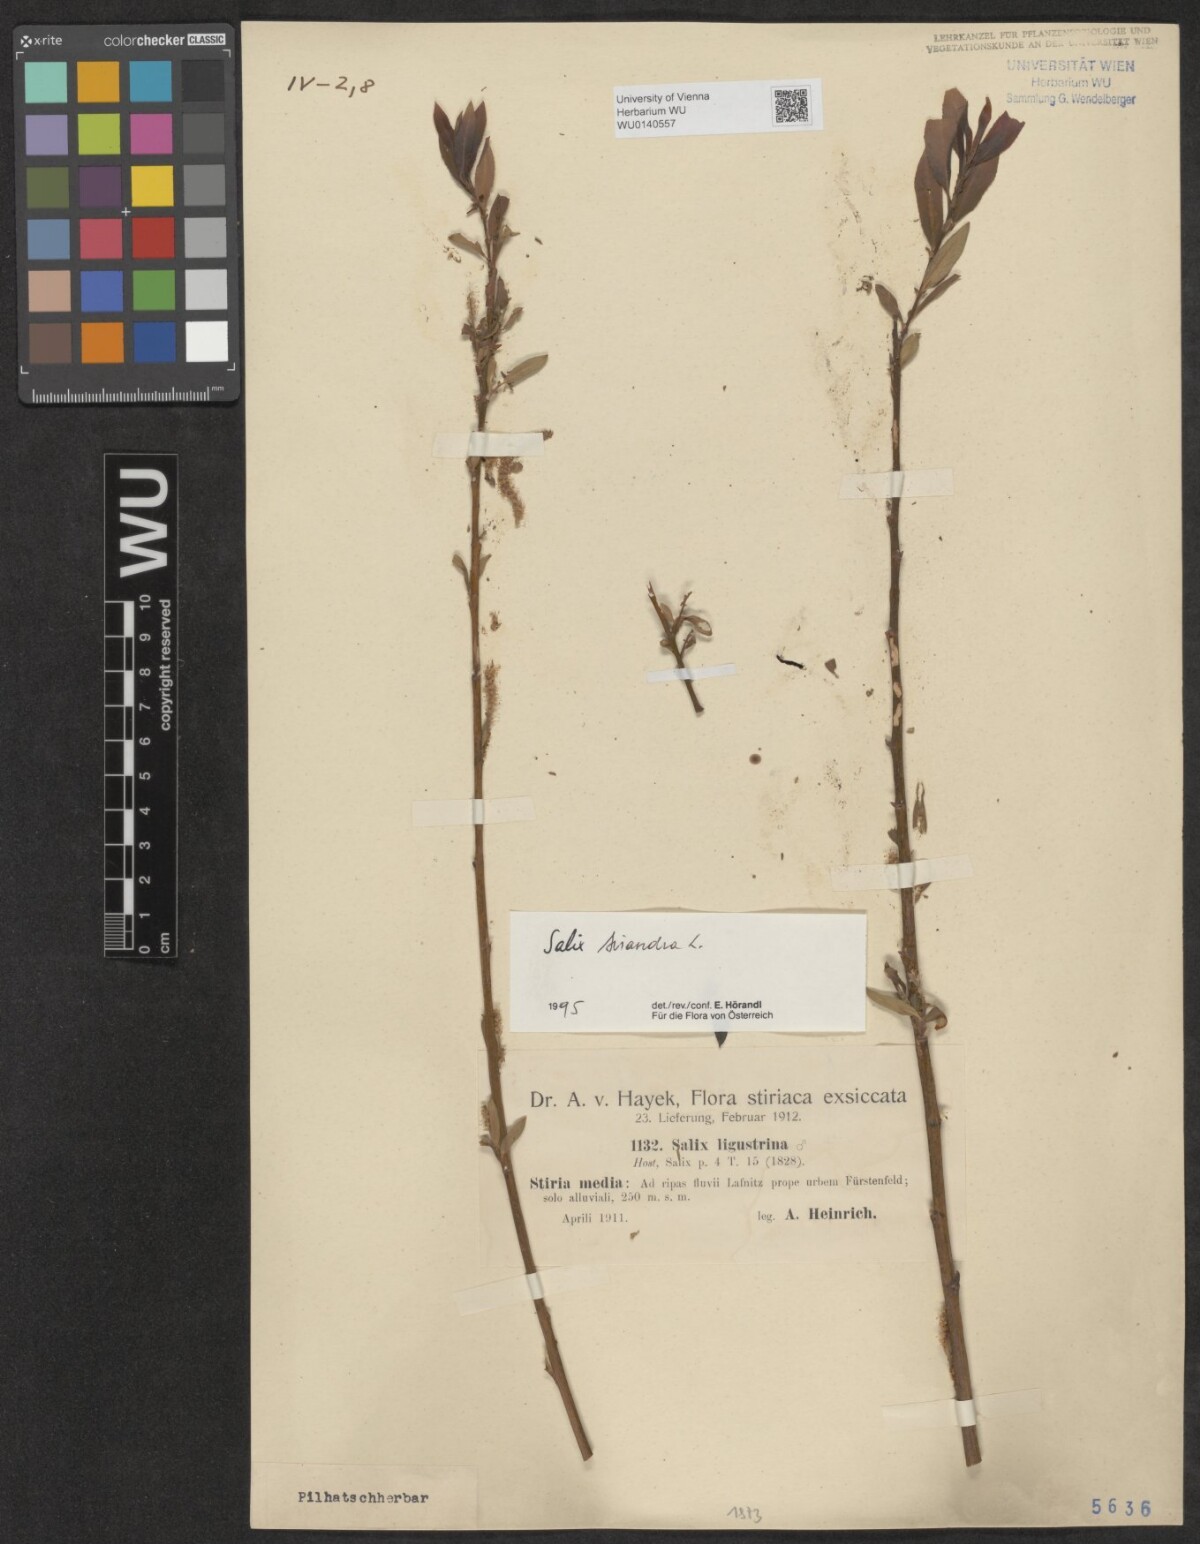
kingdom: Plantae
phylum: Tracheophyta
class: Magnoliopsida
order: Malpighiales
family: Salicaceae
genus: Salix
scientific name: Salix triandra
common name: Almond willow
